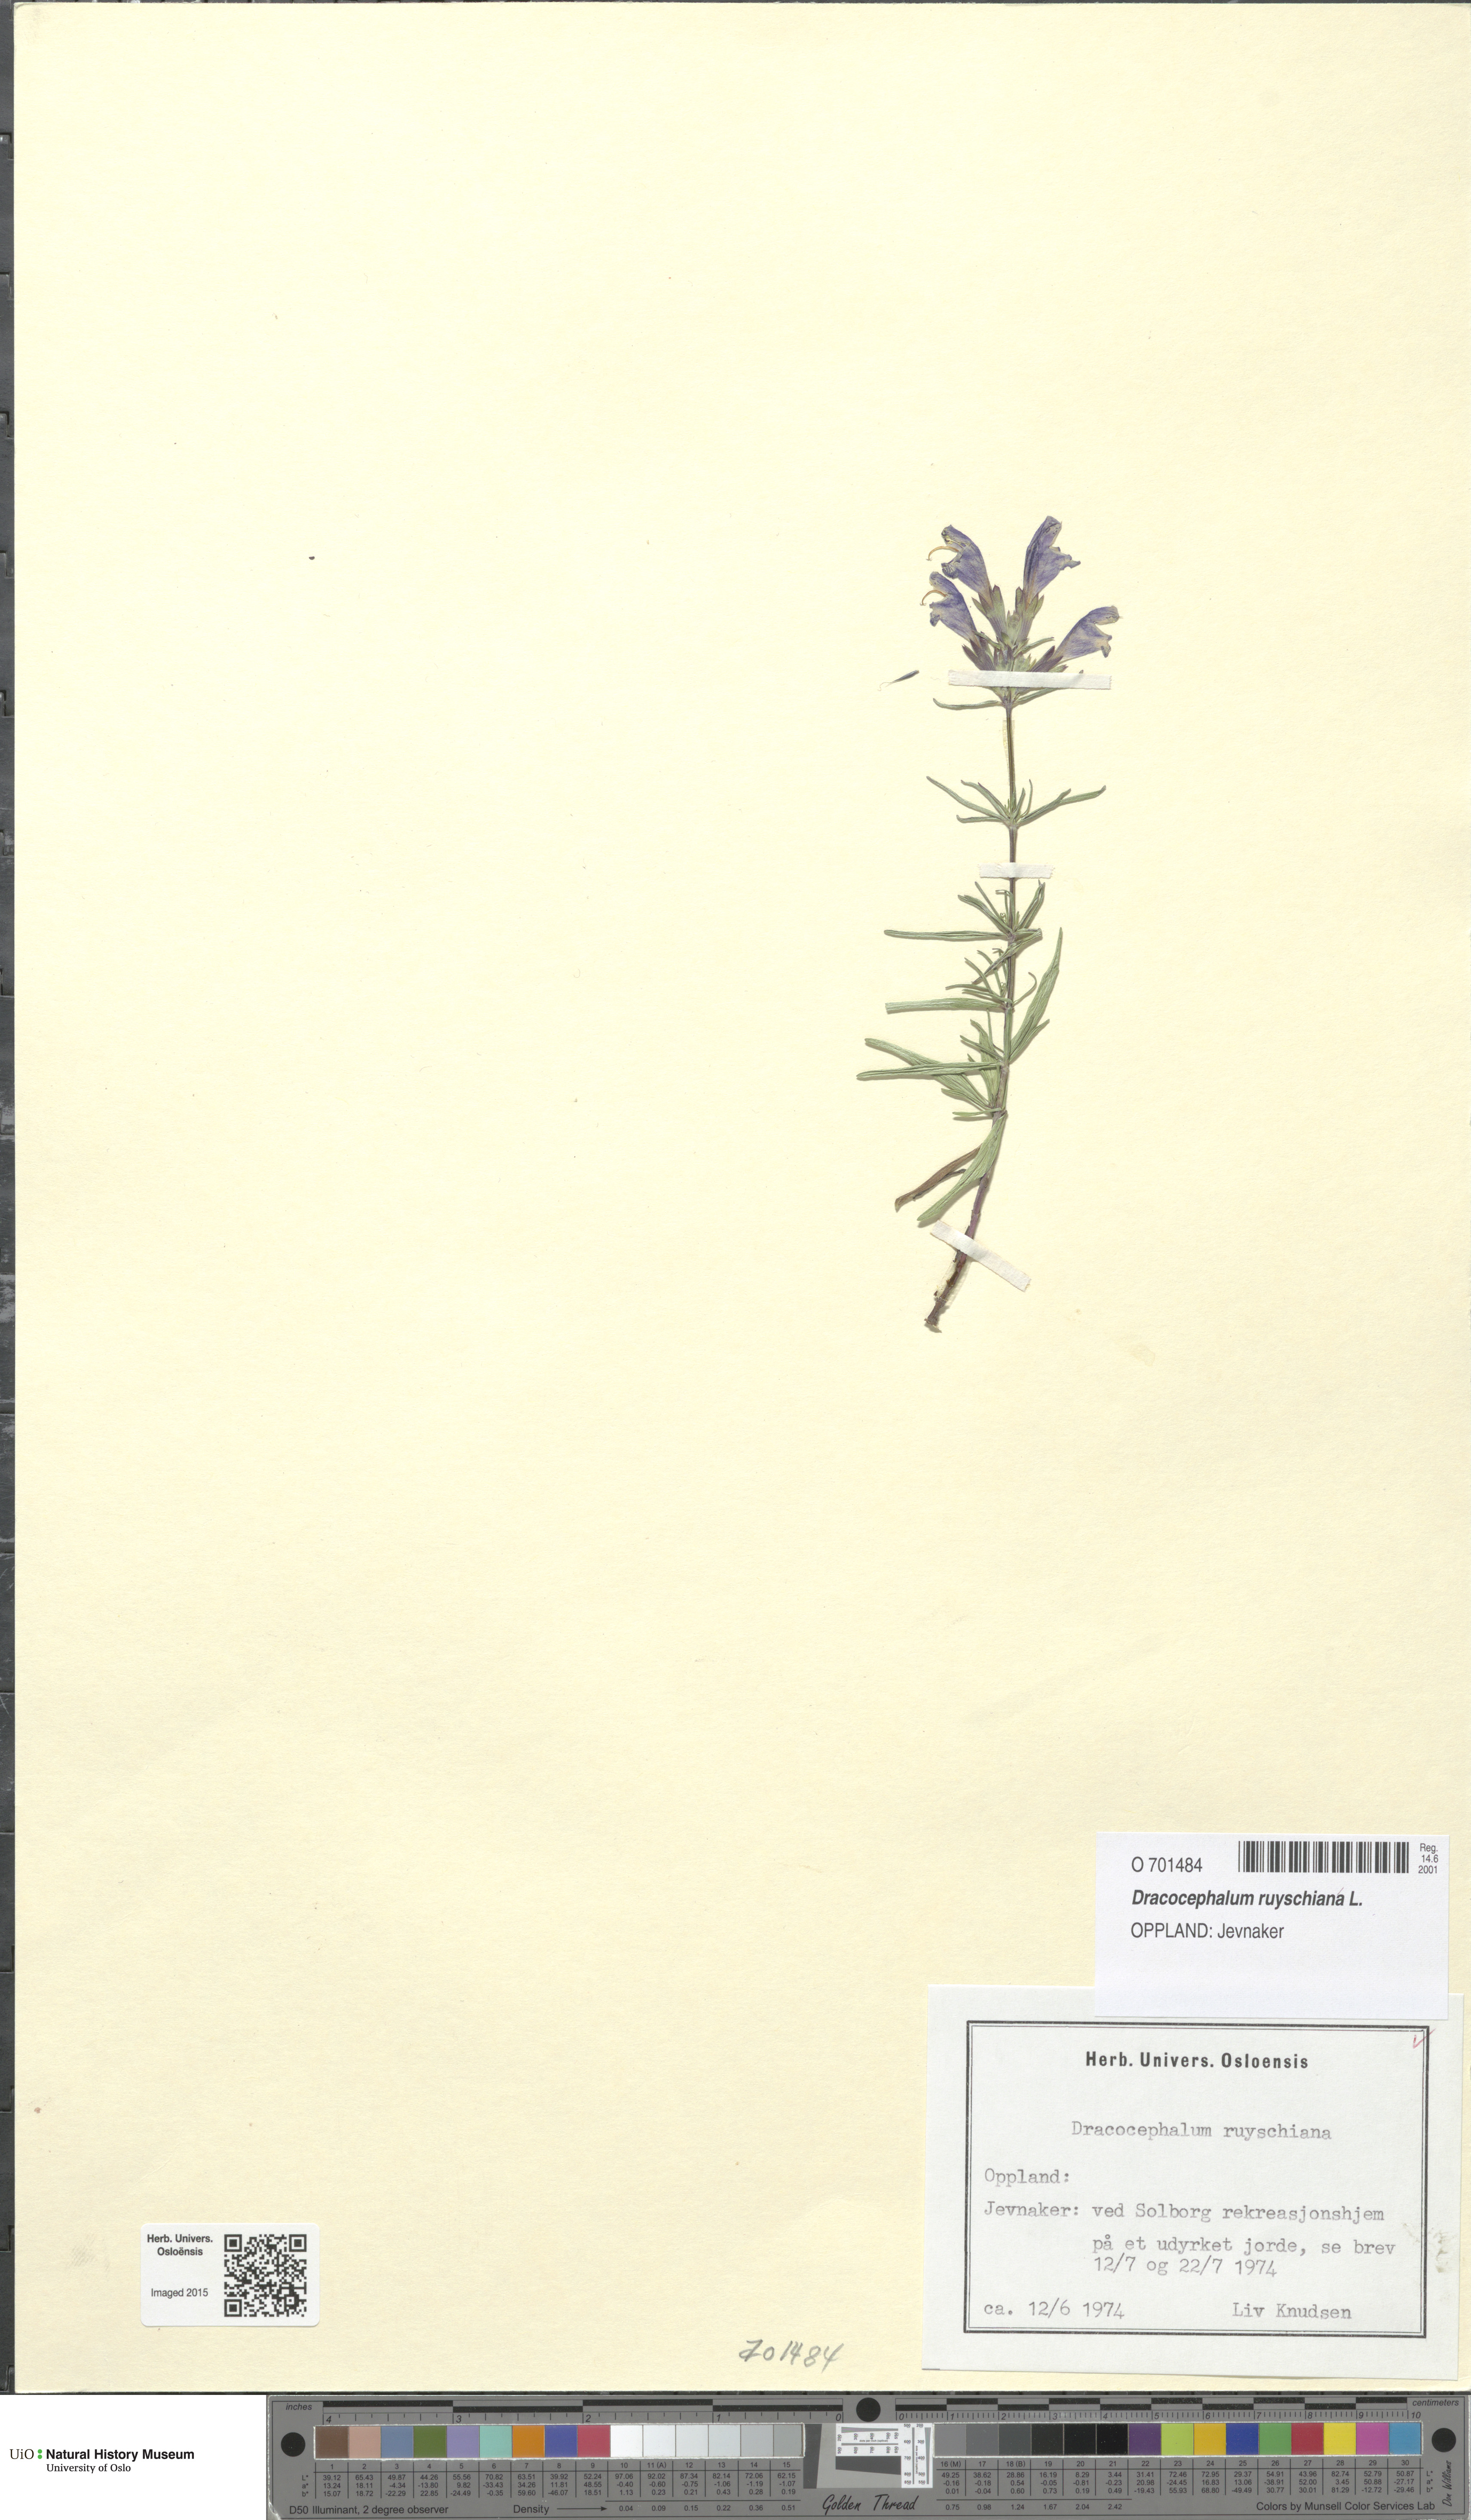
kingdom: Plantae
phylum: Tracheophyta
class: Magnoliopsida
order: Lamiales
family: Lamiaceae
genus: Dracocephalum
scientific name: Dracocephalum ruyschiana
